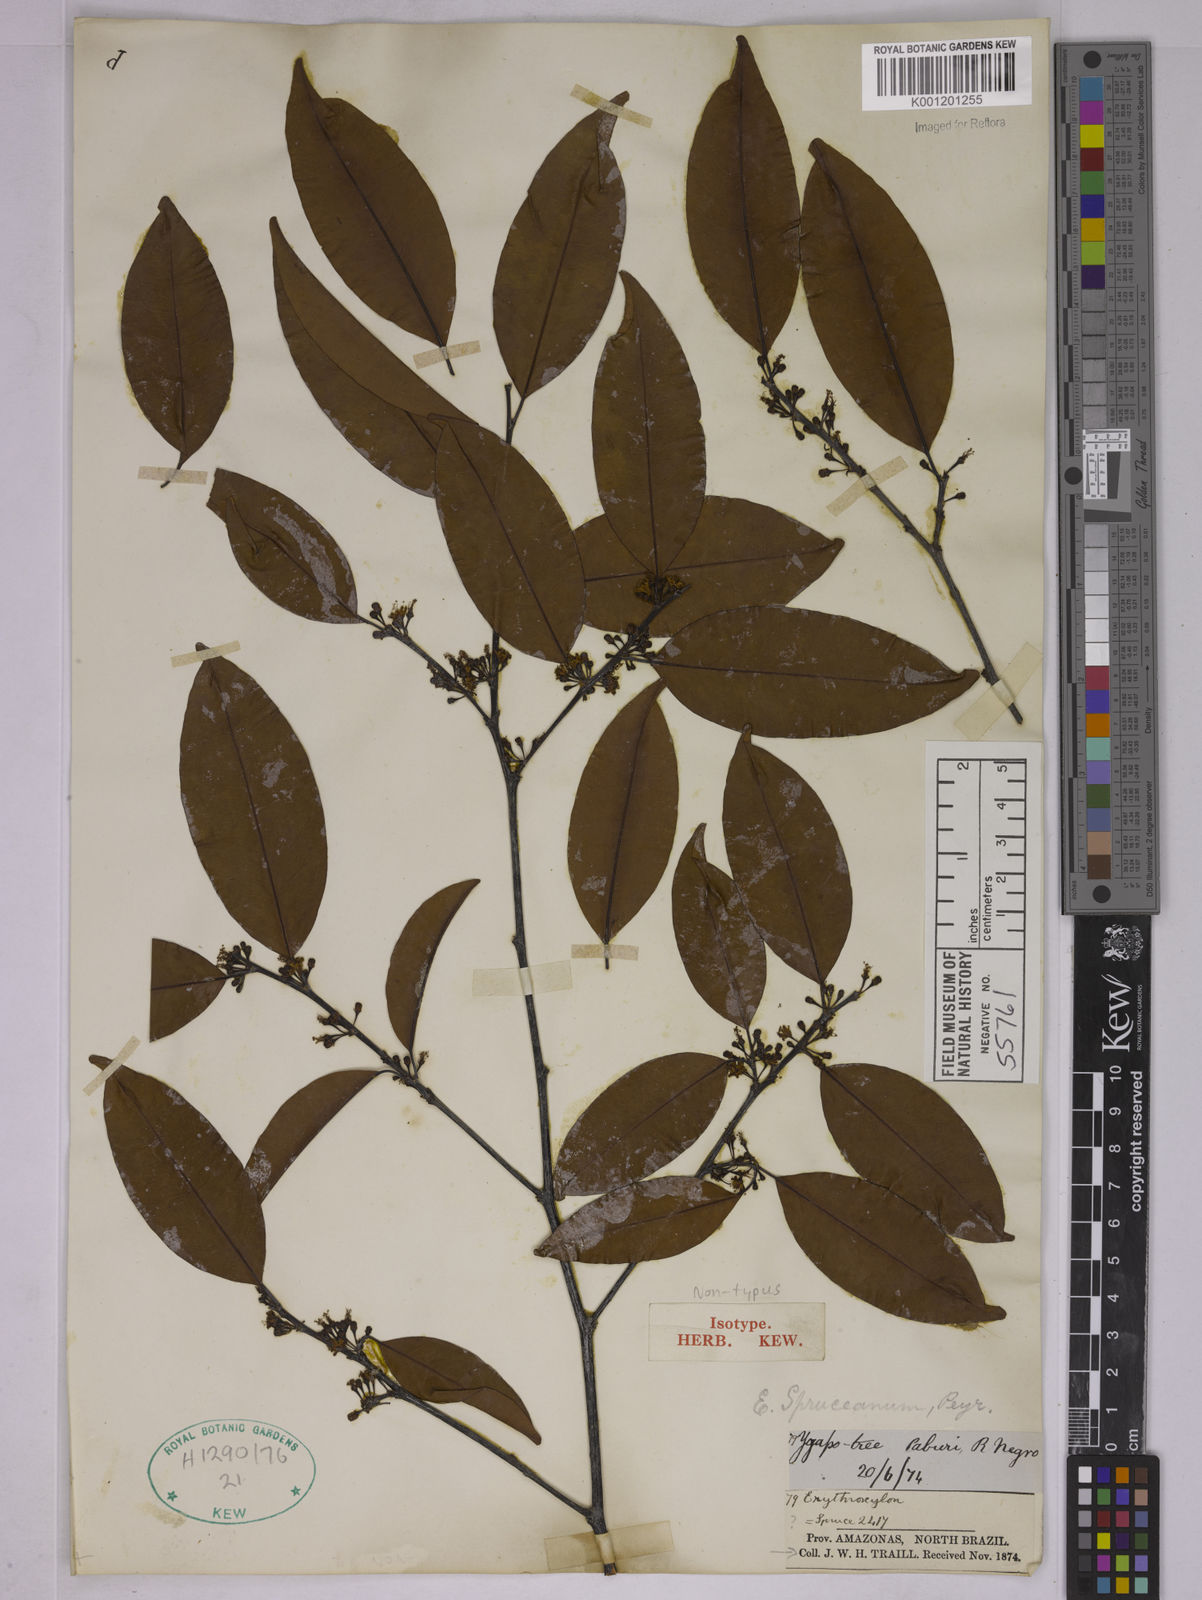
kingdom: Plantae
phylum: Tracheophyta
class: Magnoliopsida
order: Malpighiales
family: Erythroxylaceae
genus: Erythroxylum
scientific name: Erythroxylum spruceanum
